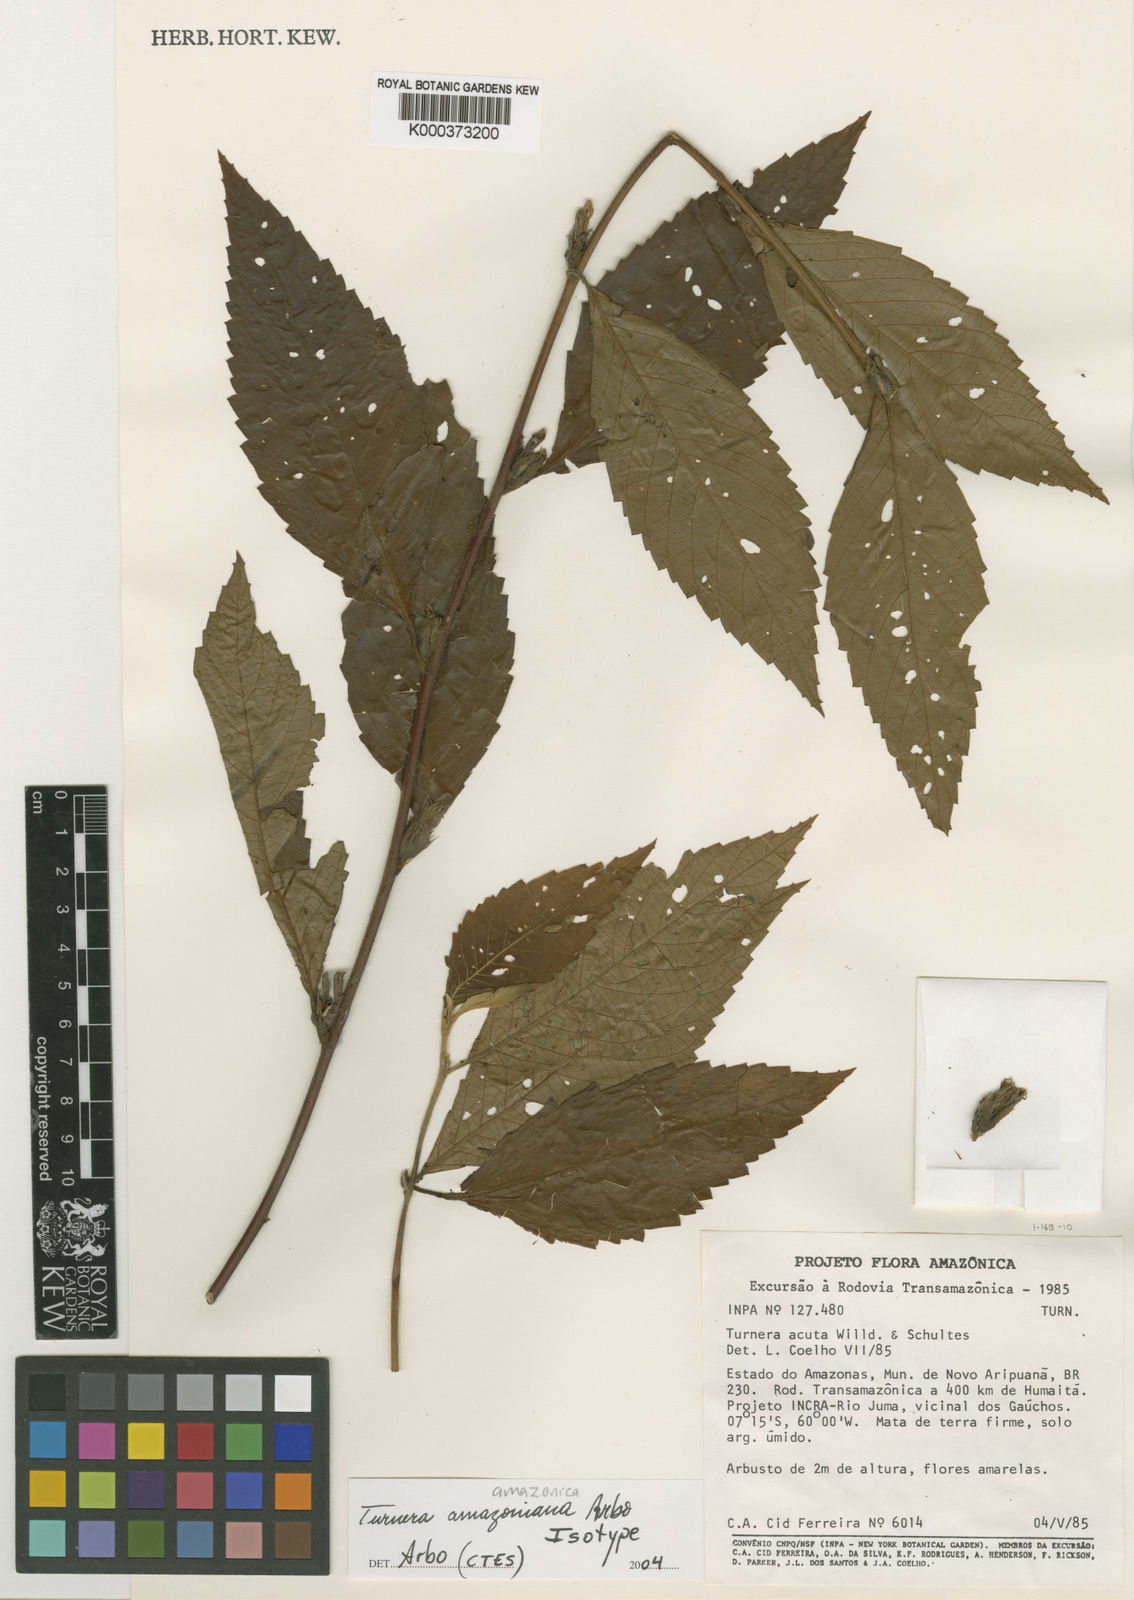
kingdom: Plantae
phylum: Tracheophyta
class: Magnoliopsida
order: Malpighiales
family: Turneraceae
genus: Turnera
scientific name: Turnera amazonica
